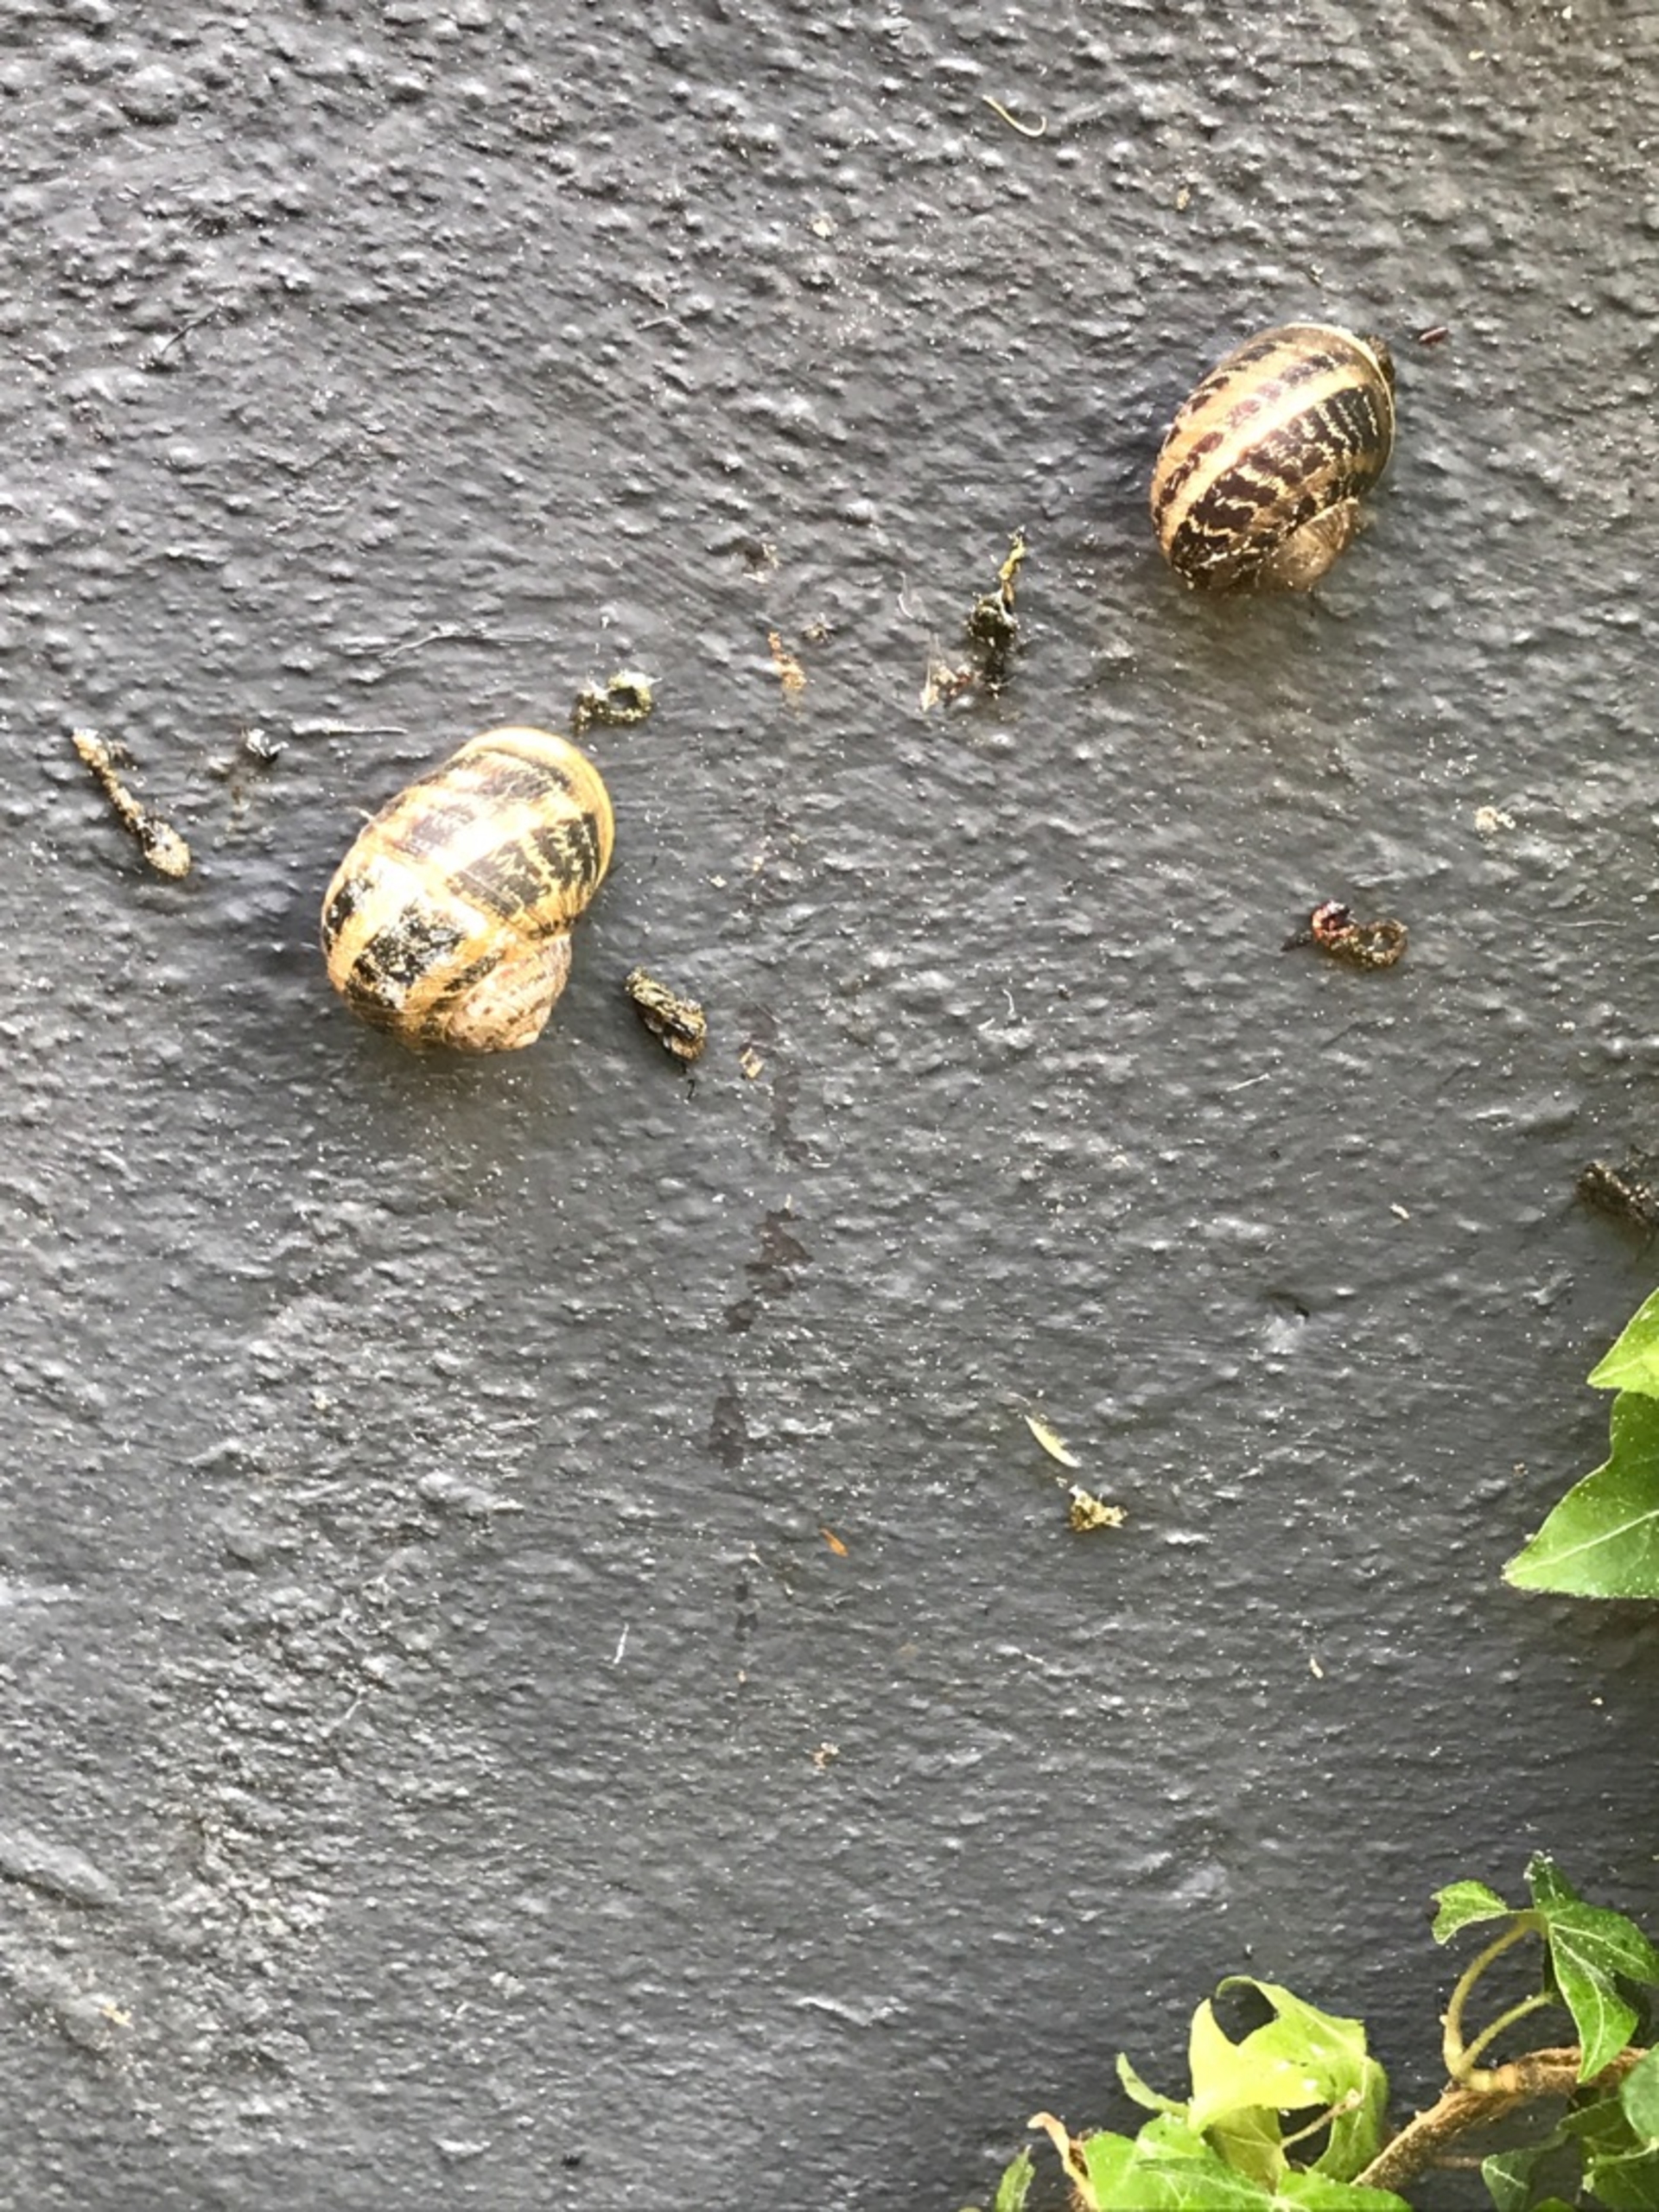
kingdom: Animalia
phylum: Mollusca
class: Gastropoda
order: Stylommatophora
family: Helicidae
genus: Cornu
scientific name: Cornu aspersum
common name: Plettet voldsnegl
